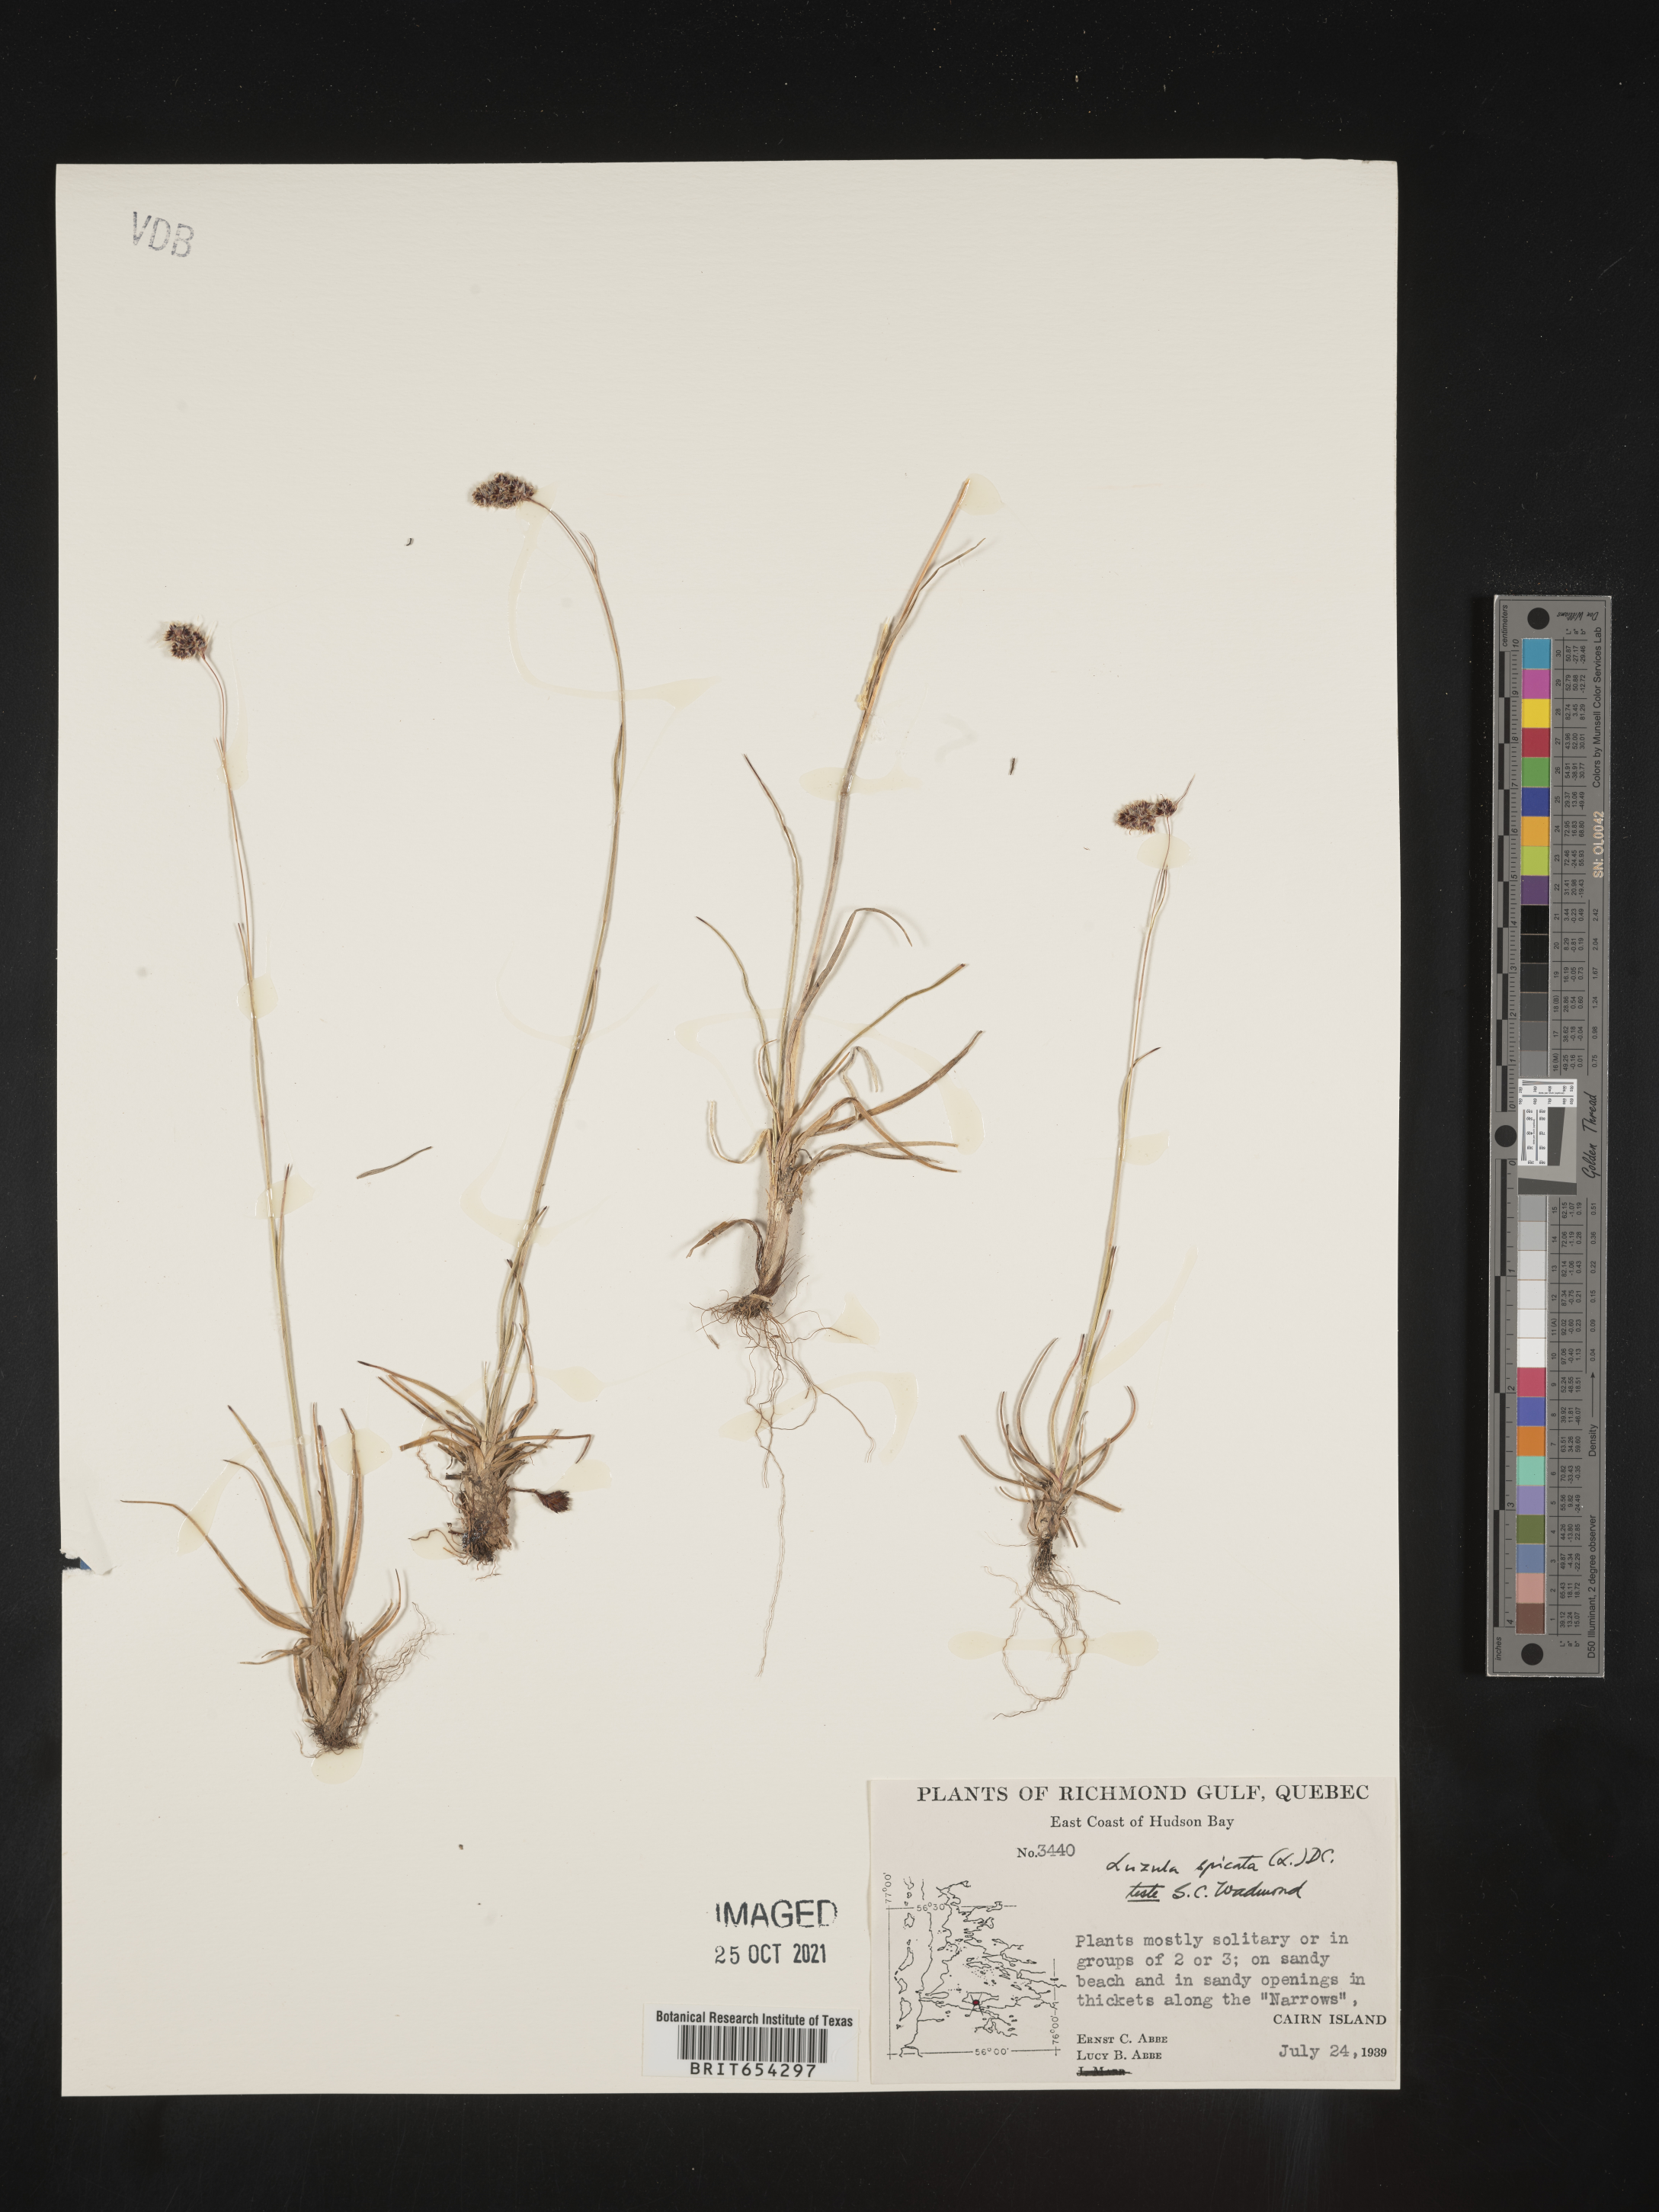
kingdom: Plantae
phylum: Tracheophyta
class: Liliopsida
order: Poales
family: Juncaceae
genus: Luzula
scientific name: Luzula
